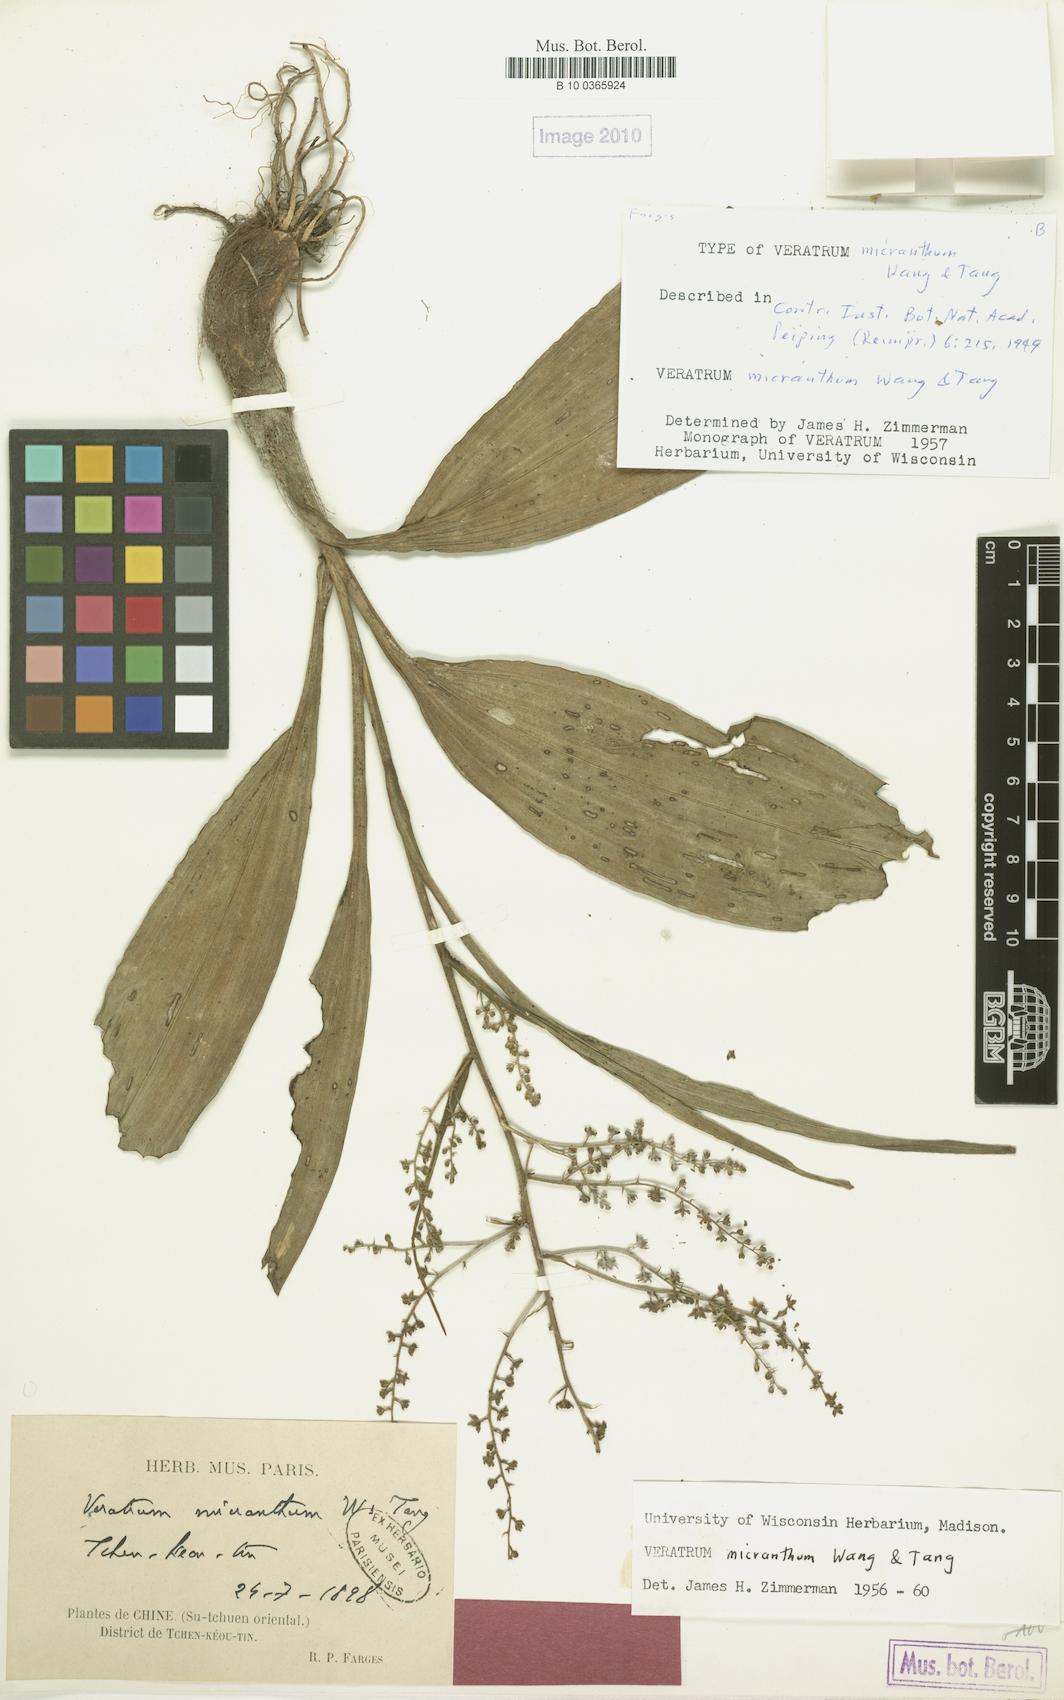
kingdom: Plantae
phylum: Tracheophyta
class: Liliopsida
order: Liliales
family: Melanthiaceae
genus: Veratrum
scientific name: Veratrum micranthum
